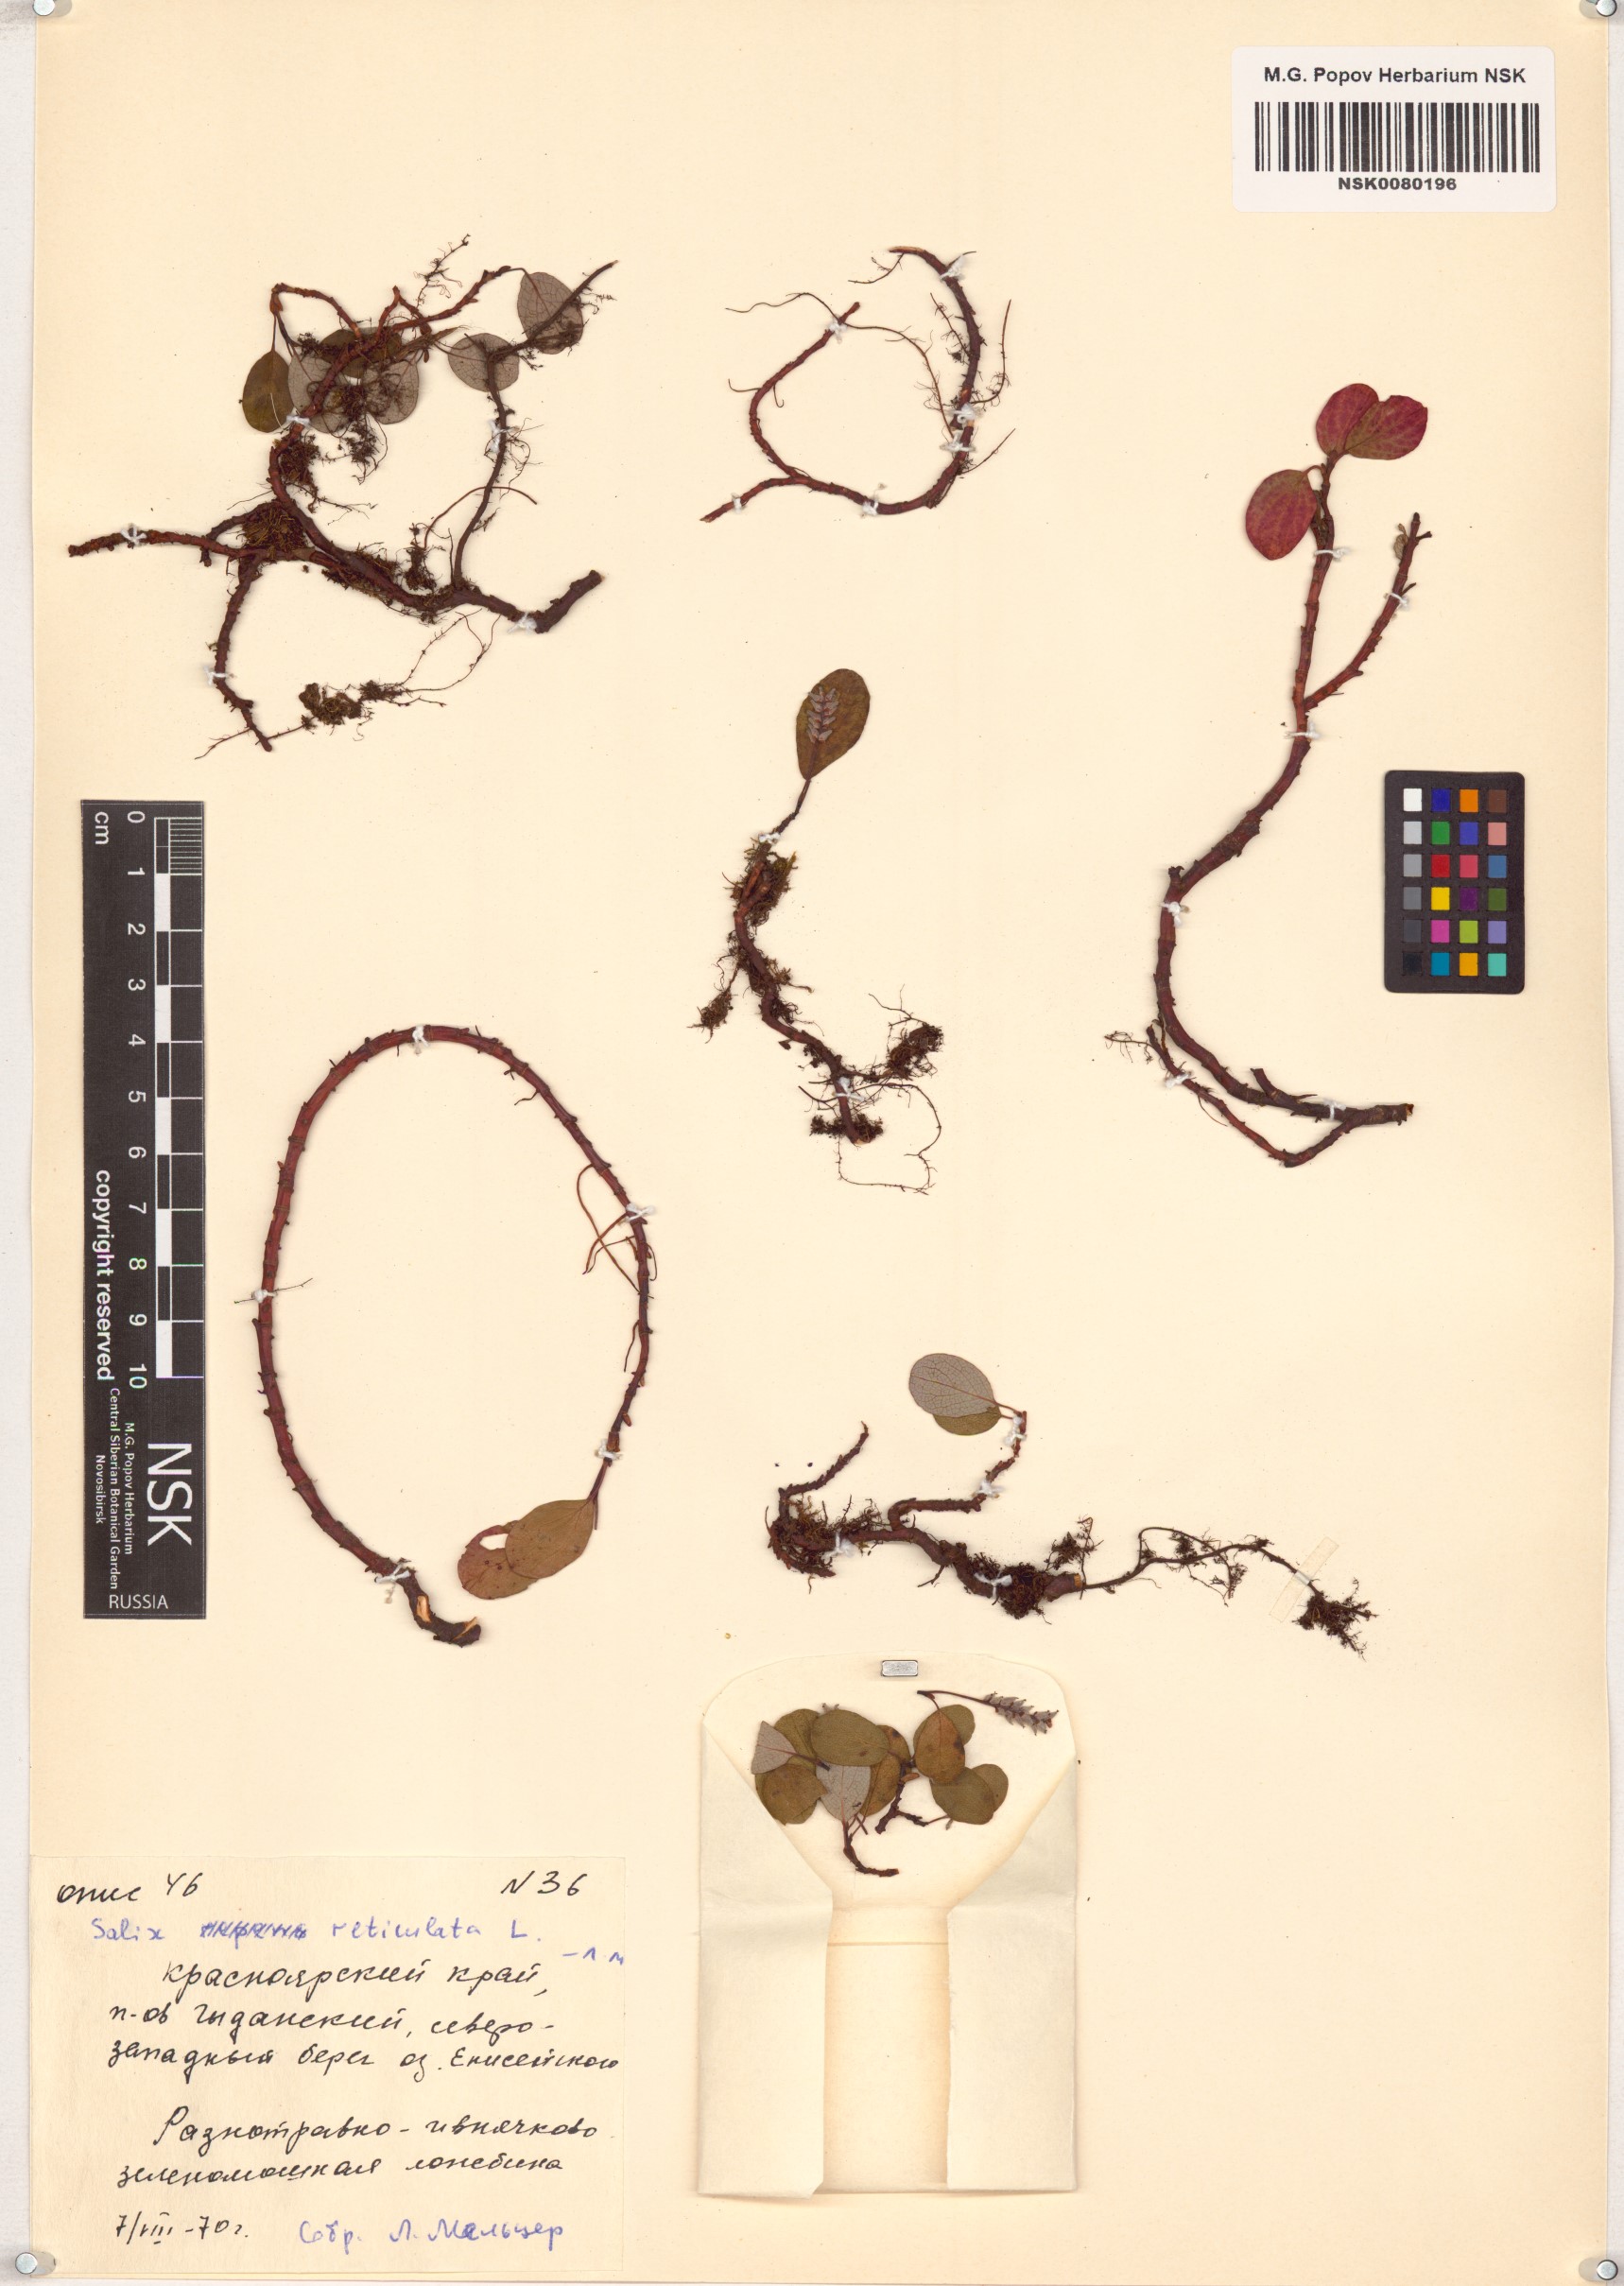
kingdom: Plantae
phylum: Tracheophyta
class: Magnoliopsida
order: Malpighiales
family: Salicaceae
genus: Salix
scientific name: Salix reticulata
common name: Net-leaved willow
